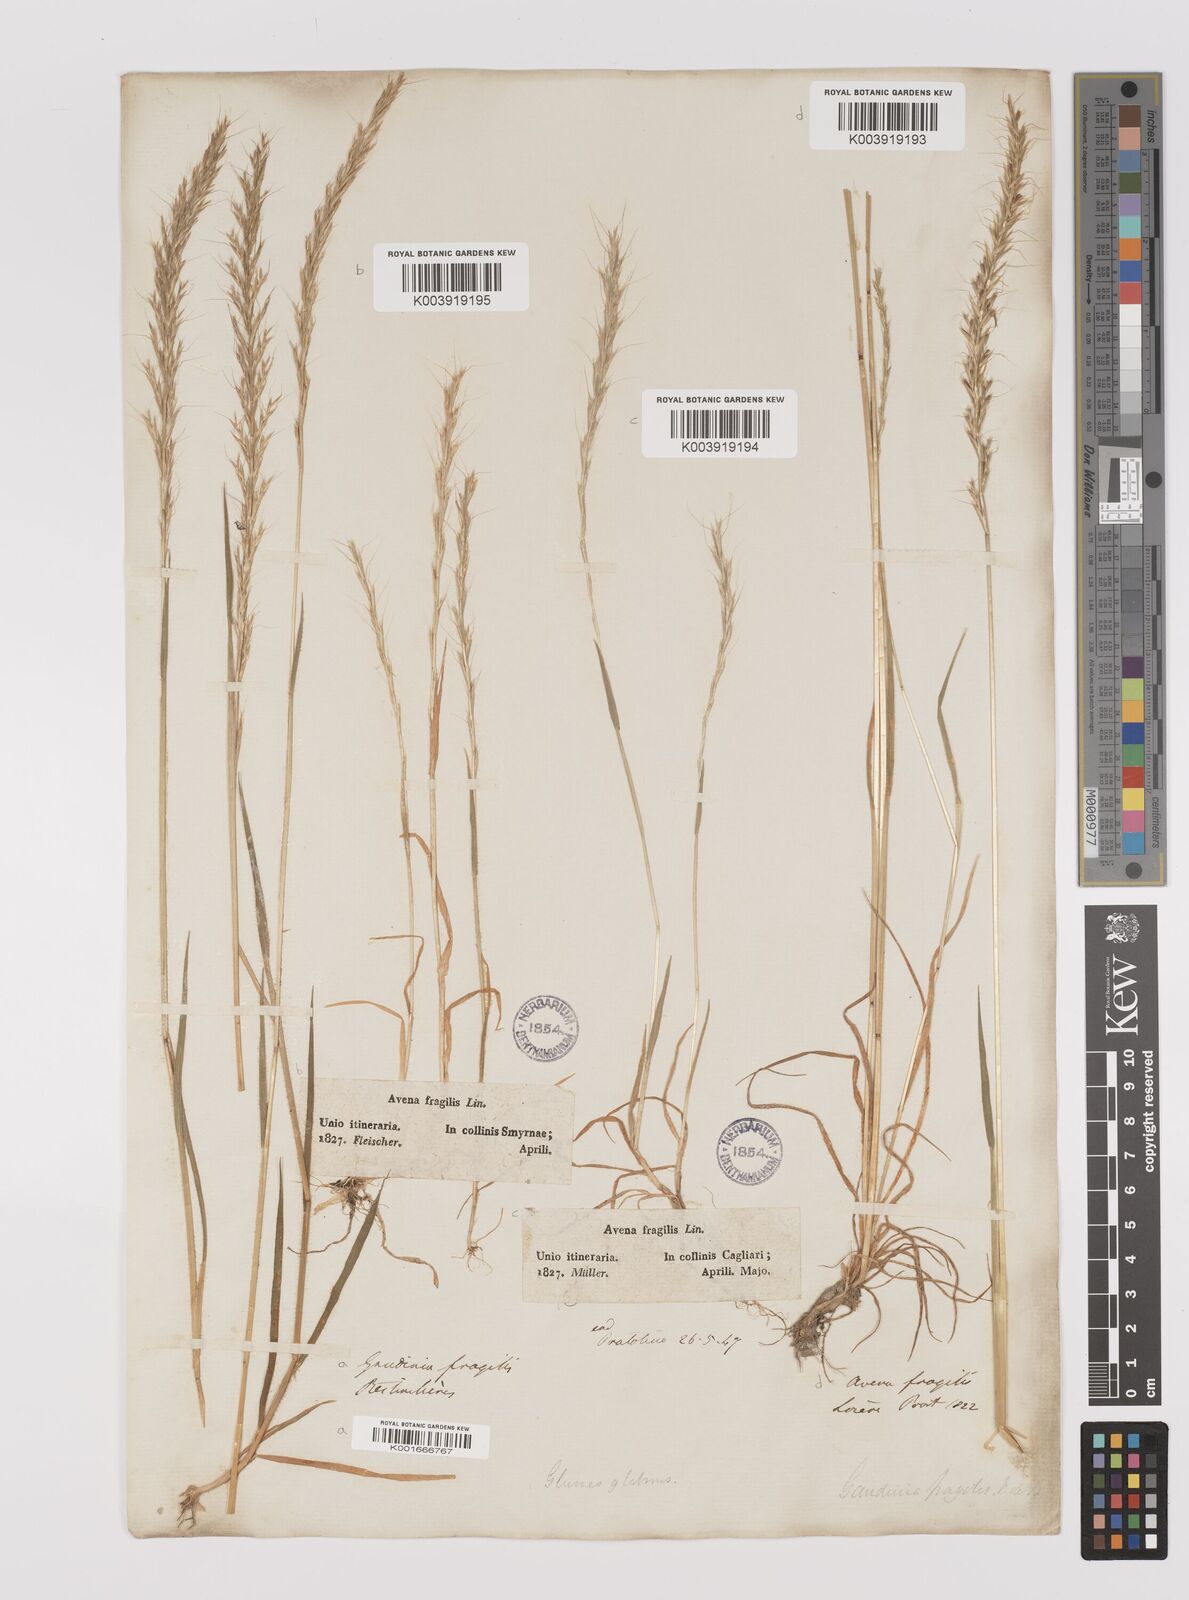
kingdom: Plantae
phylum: Tracheophyta
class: Liliopsida
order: Poales
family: Poaceae
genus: Gaudinia
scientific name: Gaudinia fragilis
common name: French oat-grass
